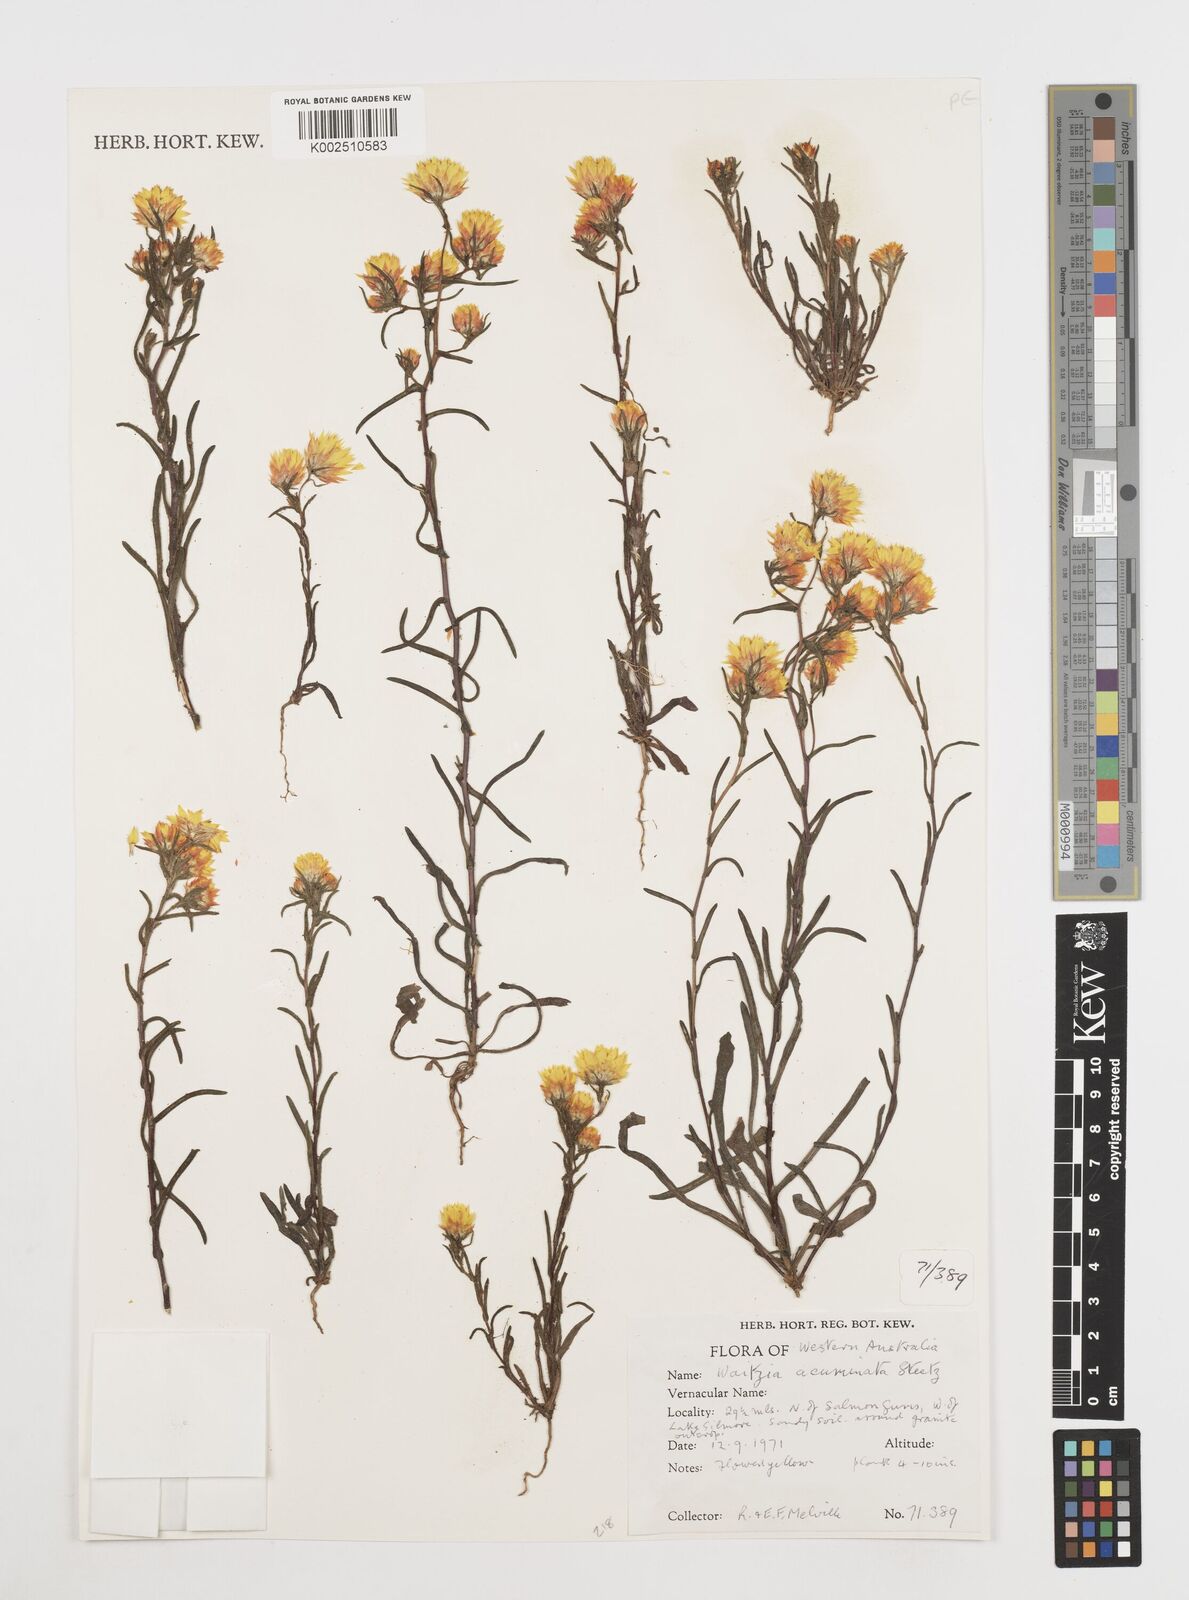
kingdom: Plantae
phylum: Tracheophyta
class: Magnoliopsida
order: Asterales
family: Asteraceae
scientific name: Asteraceae
